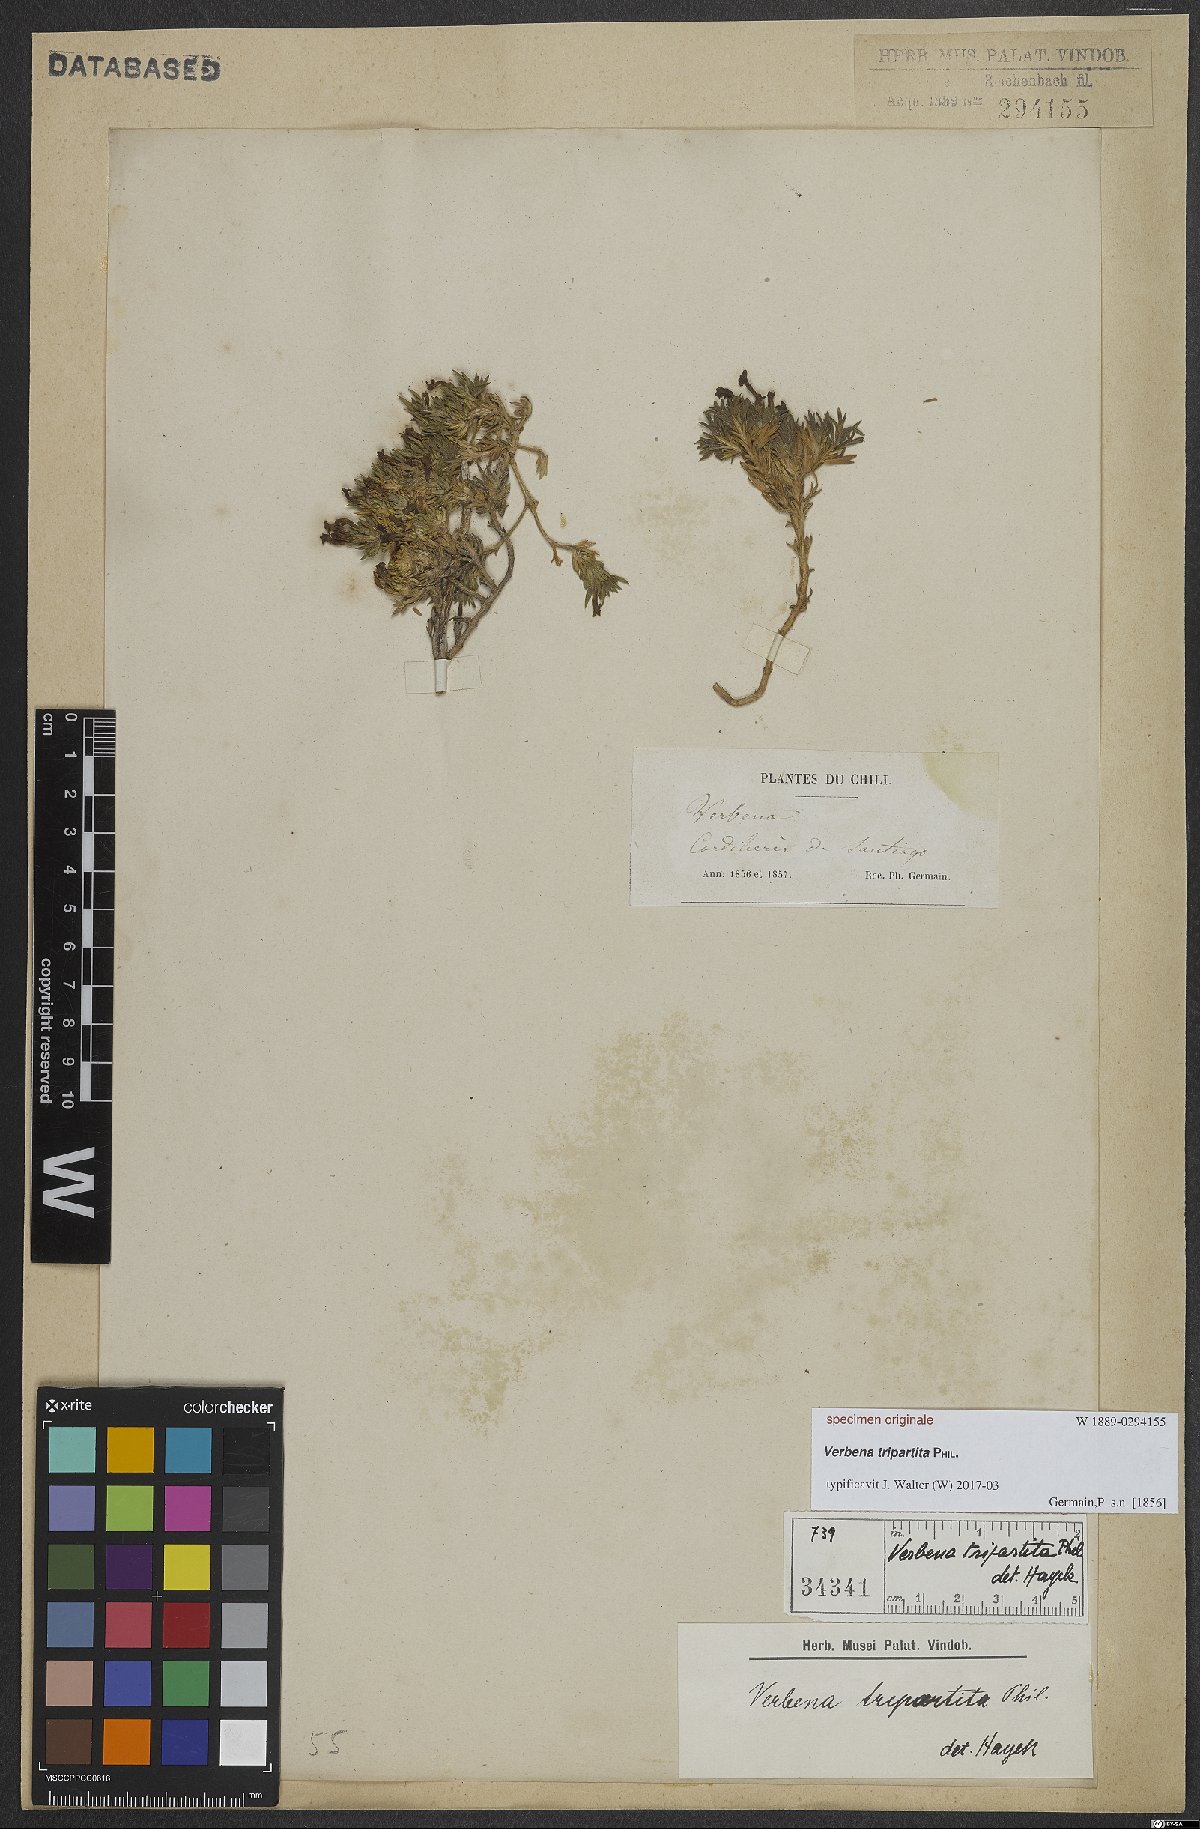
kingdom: Plantae
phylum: Tracheophyta
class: Magnoliopsida
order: Lamiales
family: Verbenaceae
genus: Verbena
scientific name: Verbena
